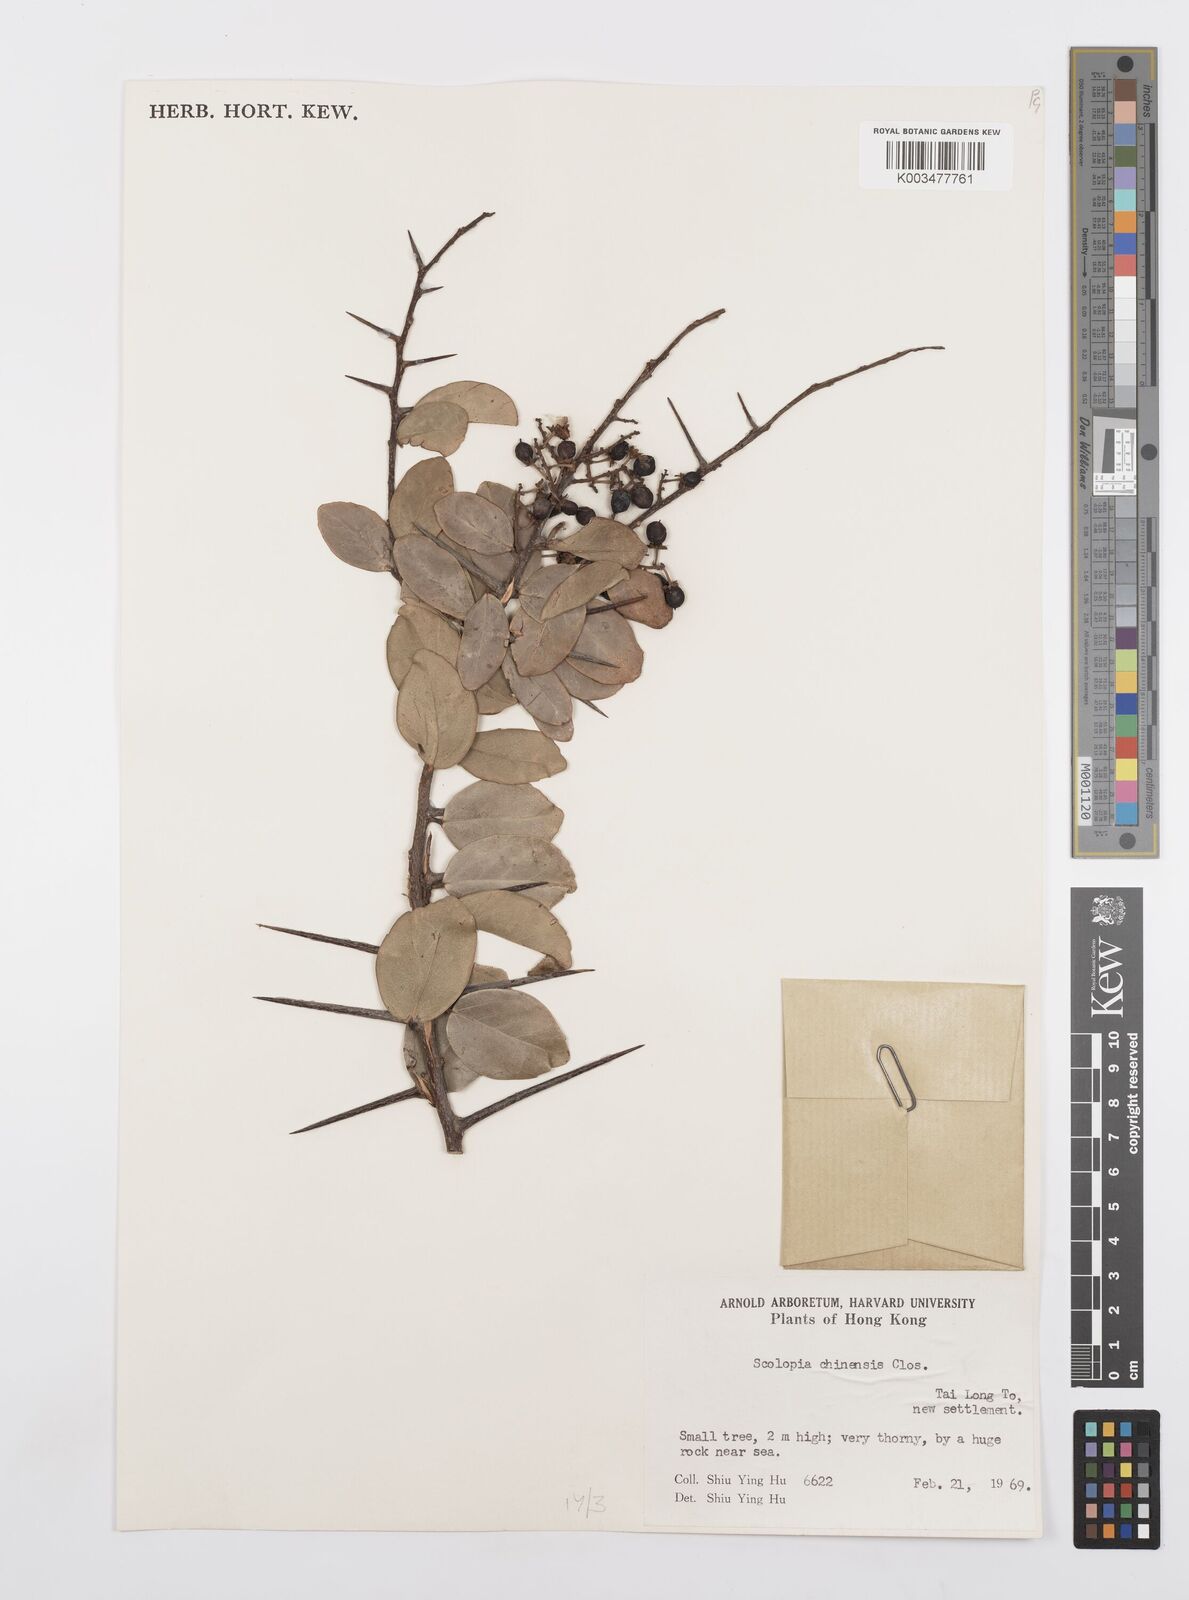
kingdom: Plantae
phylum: Tracheophyta
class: Magnoliopsida
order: Malpighiales
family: Salicaceae
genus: Scolopia
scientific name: Scolopia chinensis
